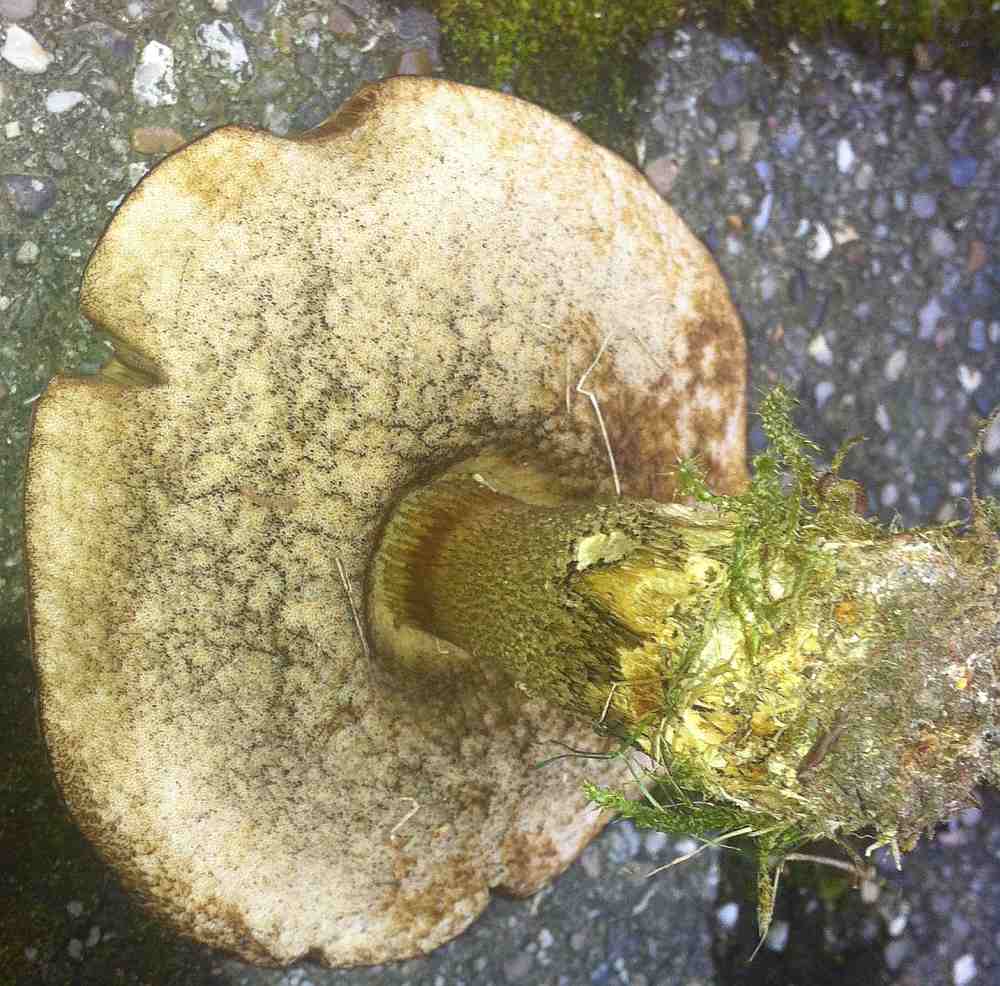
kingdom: Fungi
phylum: Basidiomycota
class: Agaricomycetes
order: Boletales
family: Boletaceae
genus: Leccinum
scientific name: Leccinum scabrum
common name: brun skælrørhat
